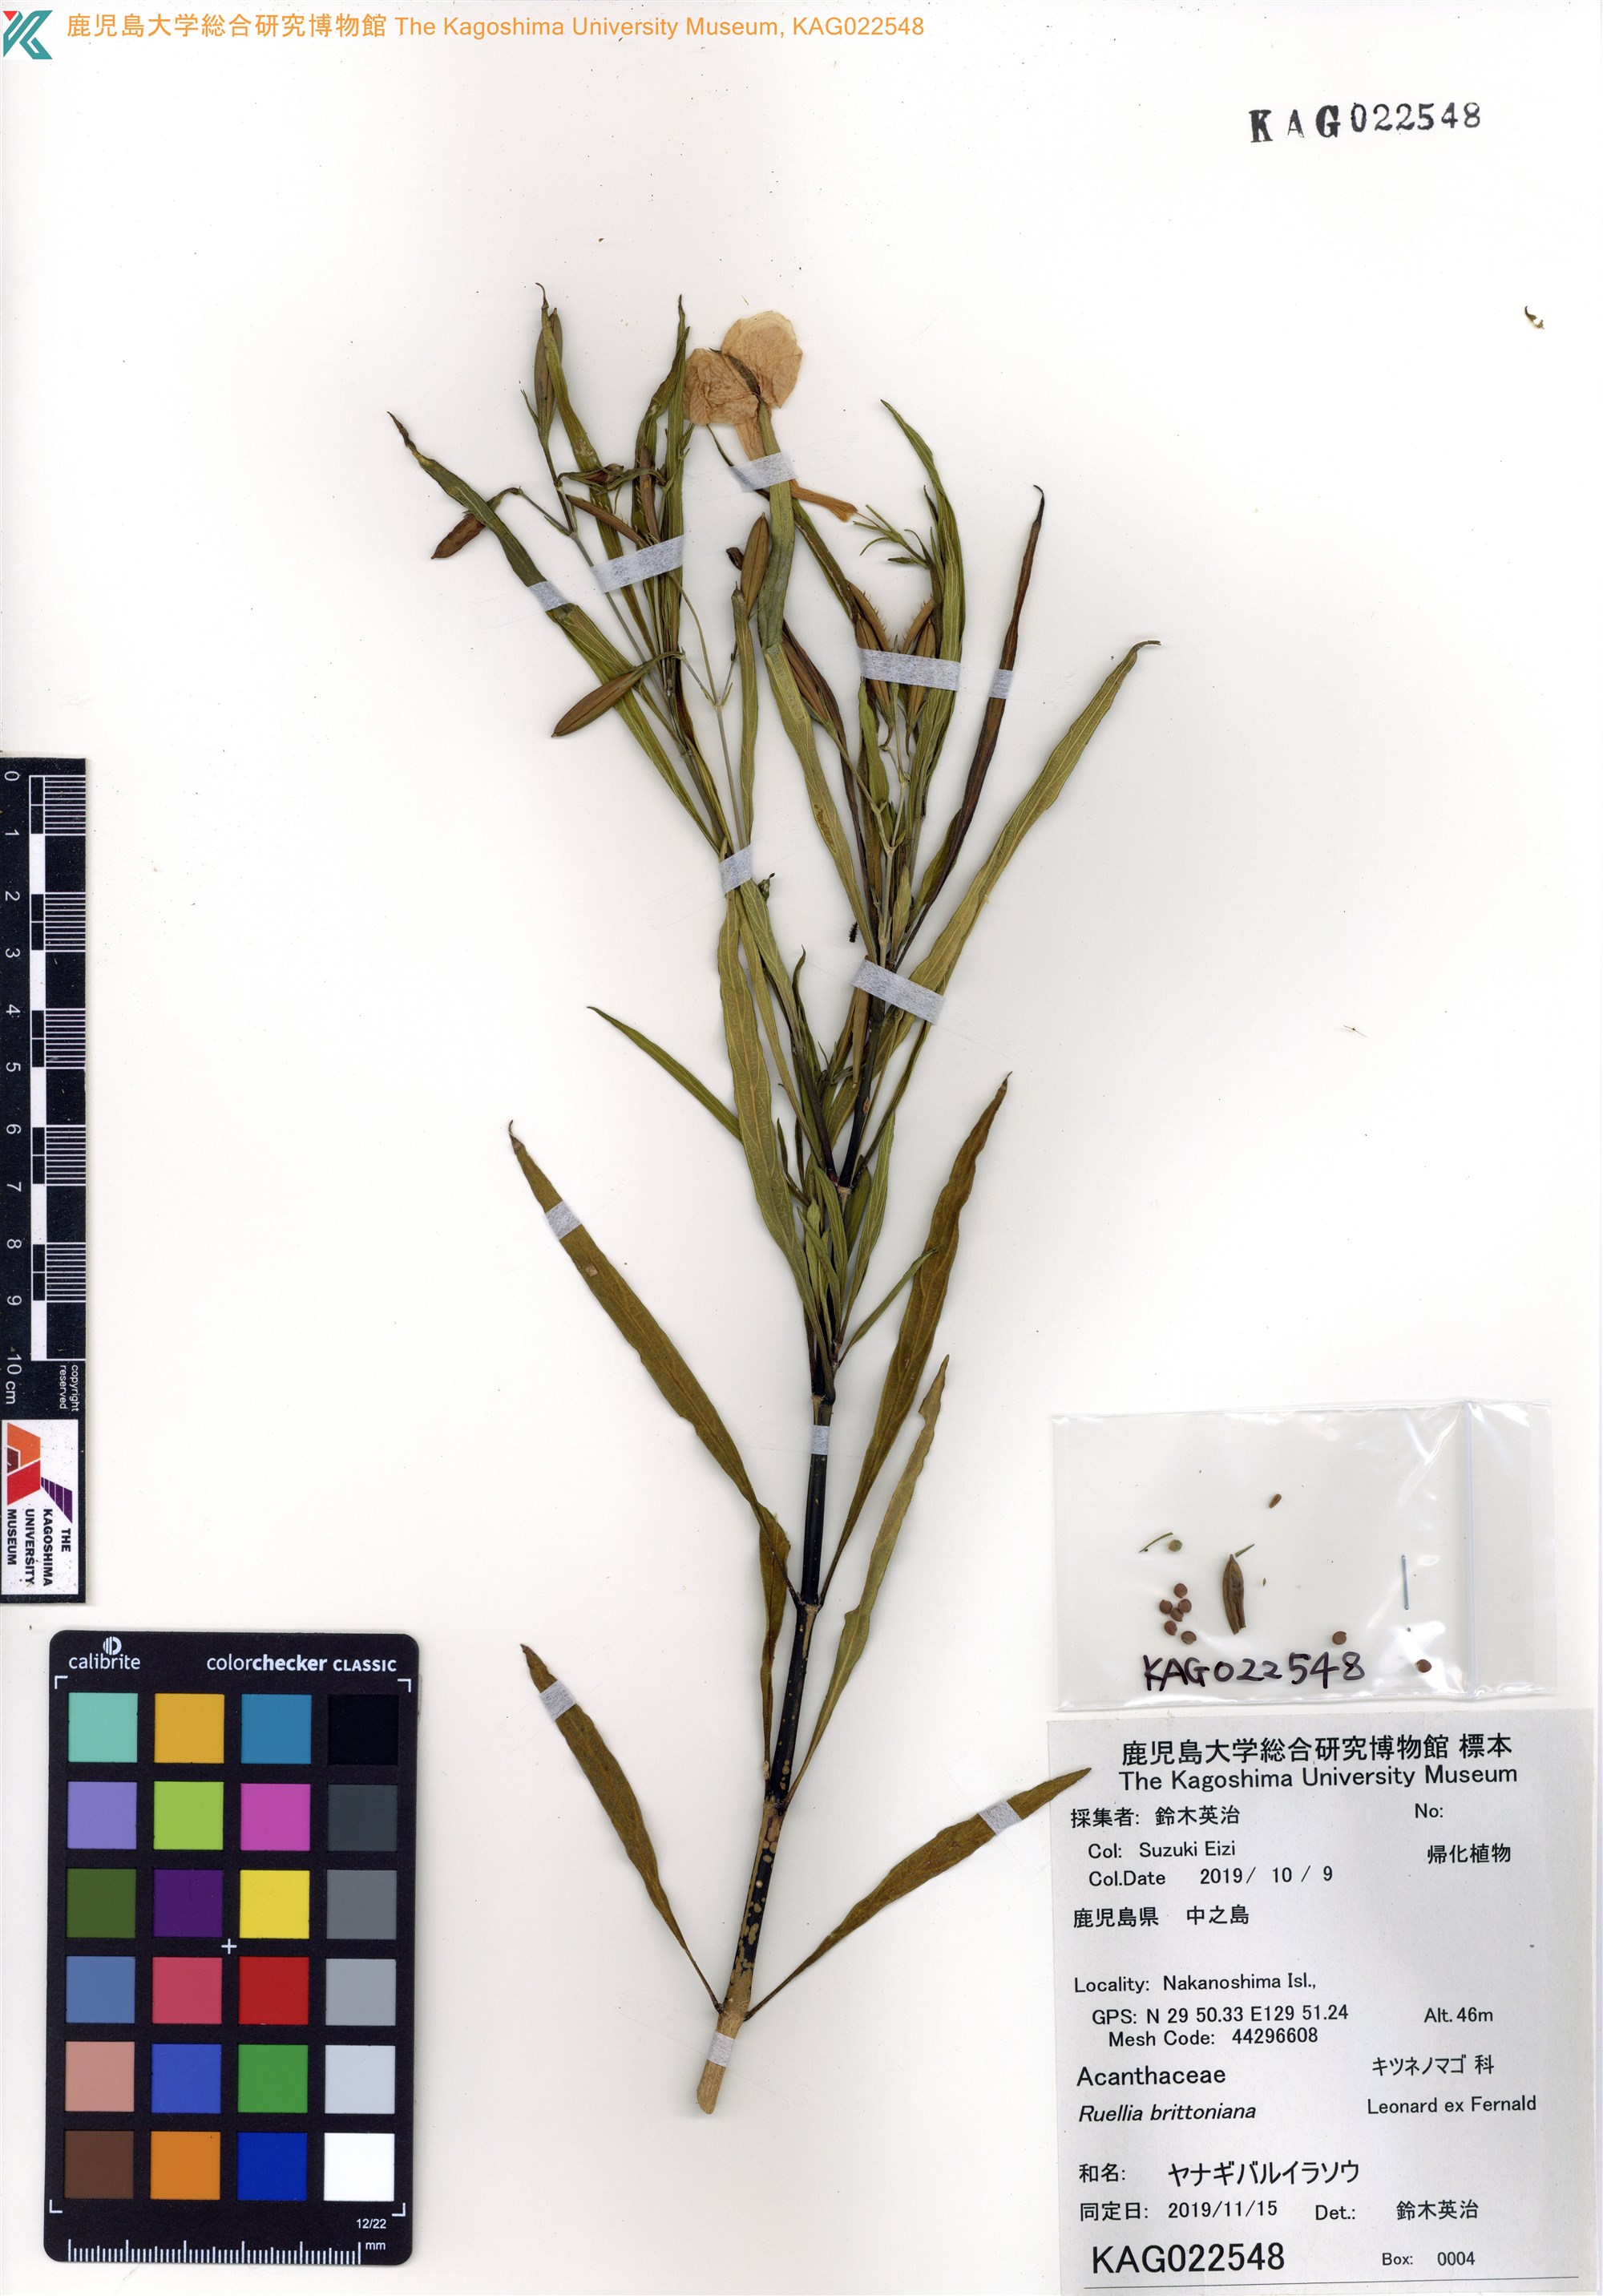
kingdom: Plantae
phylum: Tracheophyta
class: Magnoliopsida
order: Lamiales
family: Acanthaceae
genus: Ruellia
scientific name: Ruellia simplex
